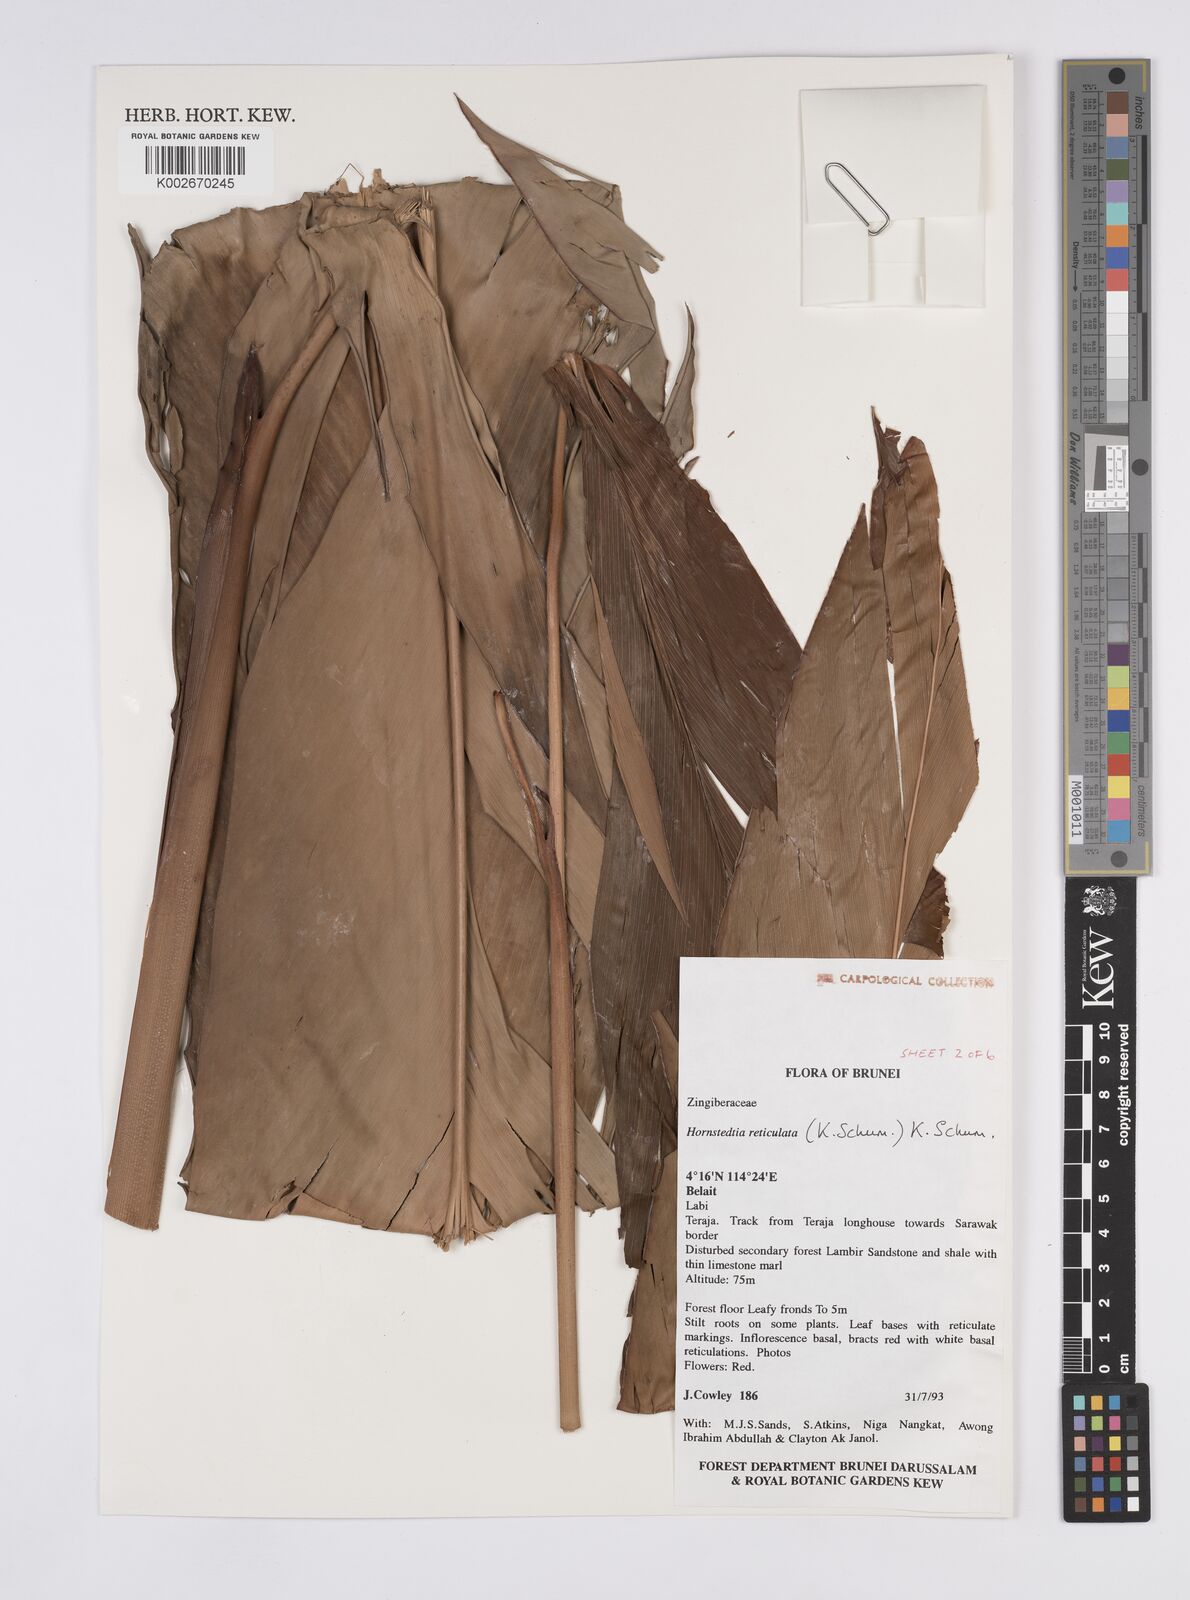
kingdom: Plantae
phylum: Tracheophyta
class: Liliopsida
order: Zingiberales
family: Zingiberaceae
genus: Hornstedtia
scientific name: Hornstedtia reticulata
